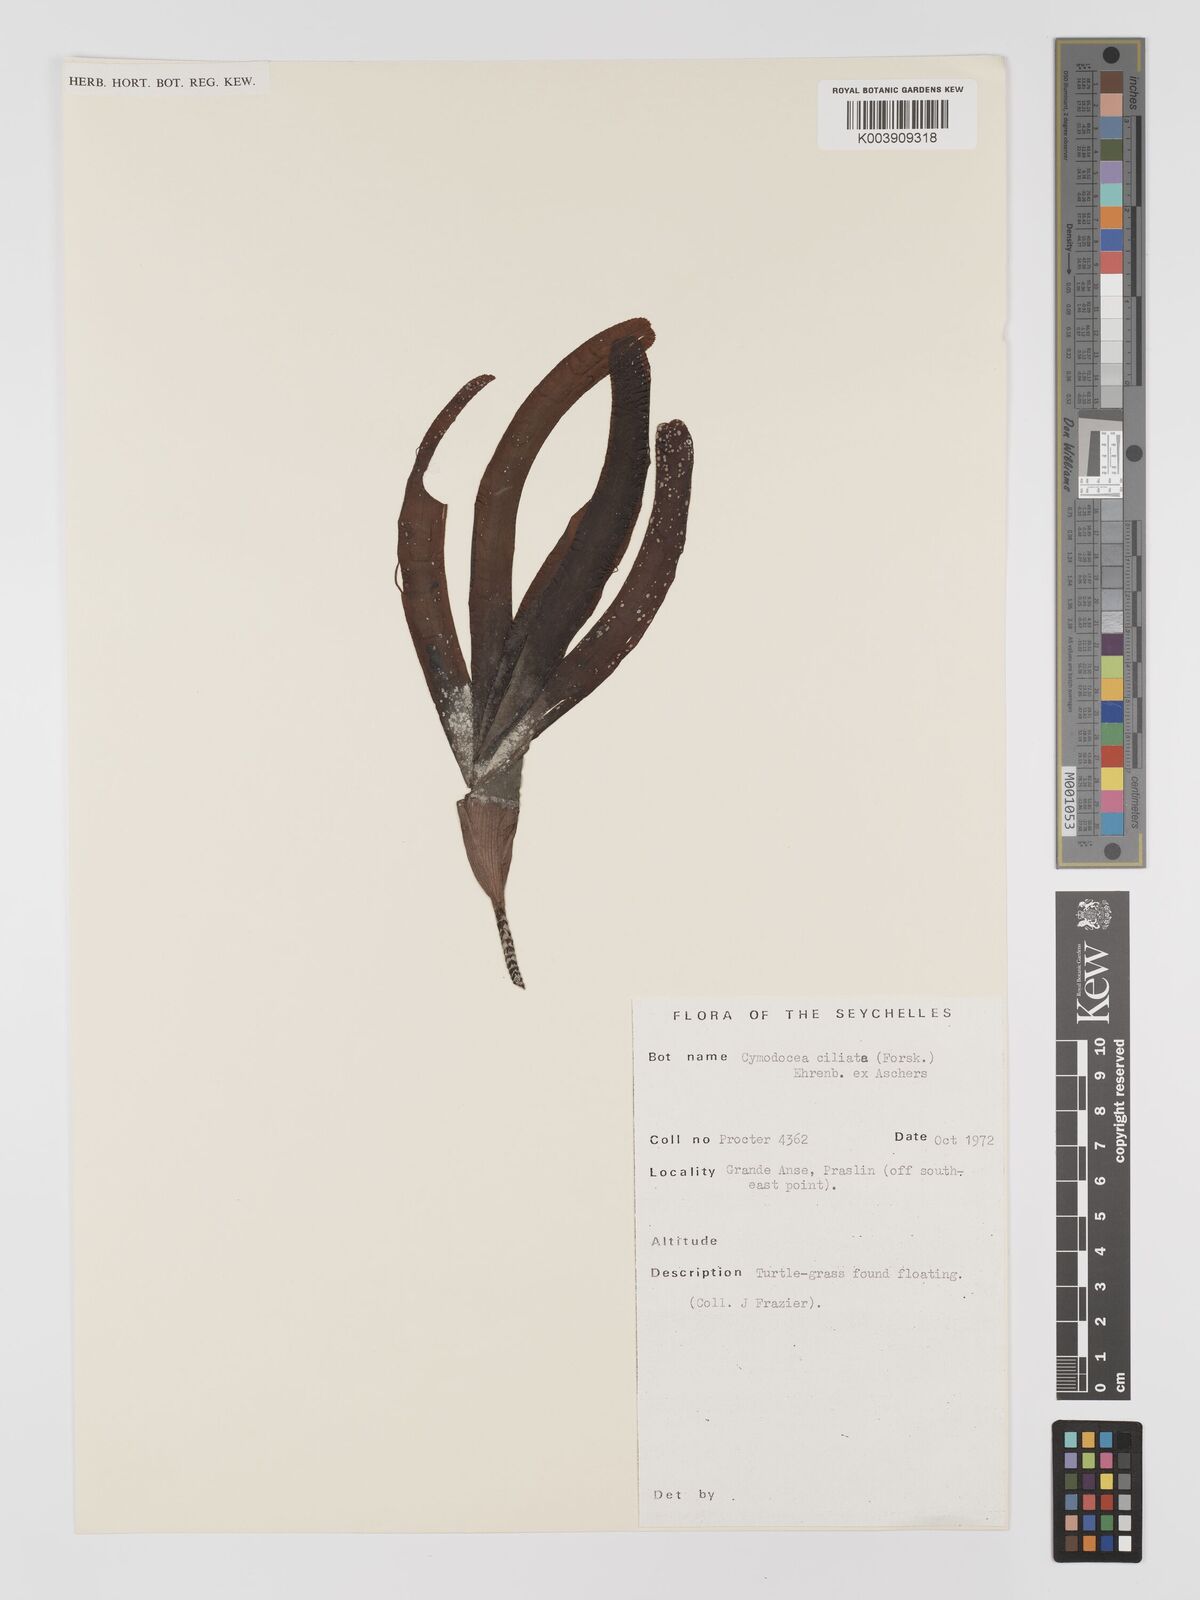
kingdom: Plantae
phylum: Tracheophyta
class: Liliopsida
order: Alismatales
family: Cymodoceaceae
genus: Thalassodendron
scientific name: Thalassodendron ciliatum
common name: Species code: tc
